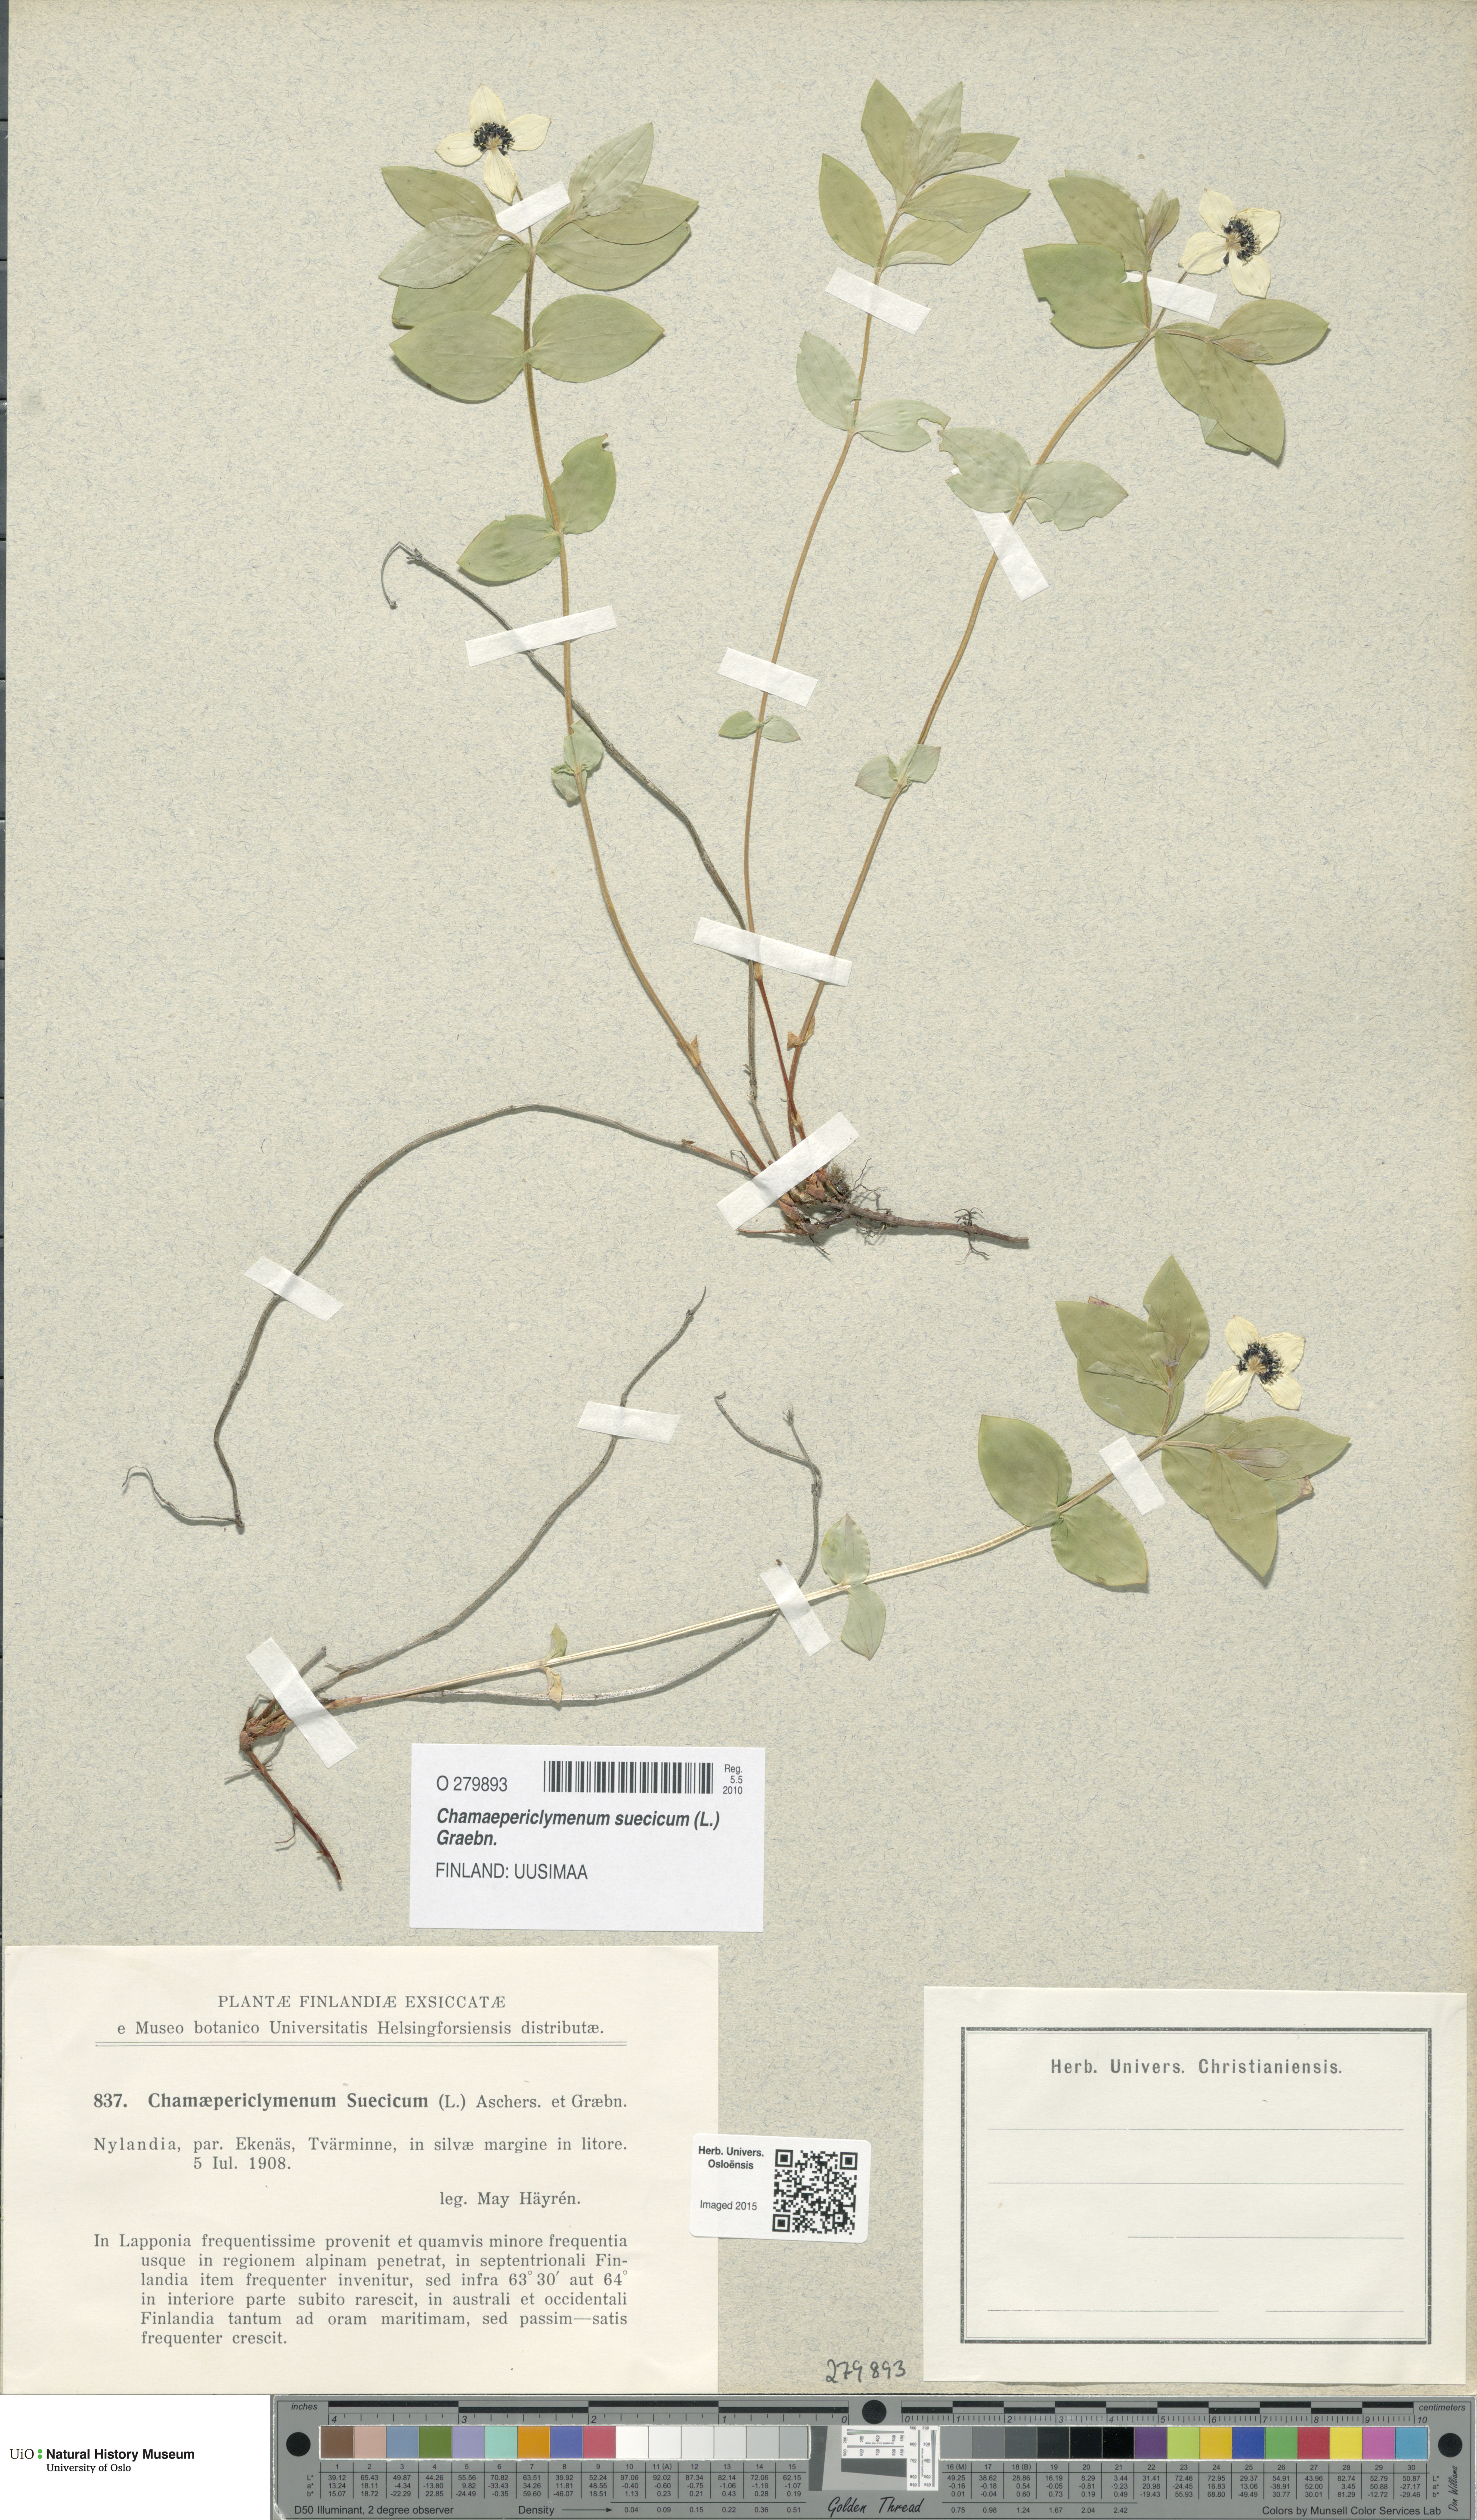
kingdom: Plantae
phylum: Tracheophyta
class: Magnoliopsida
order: Cornales
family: Cornaceae
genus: Cornus
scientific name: Cornus suecica
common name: Dwarf cornel
